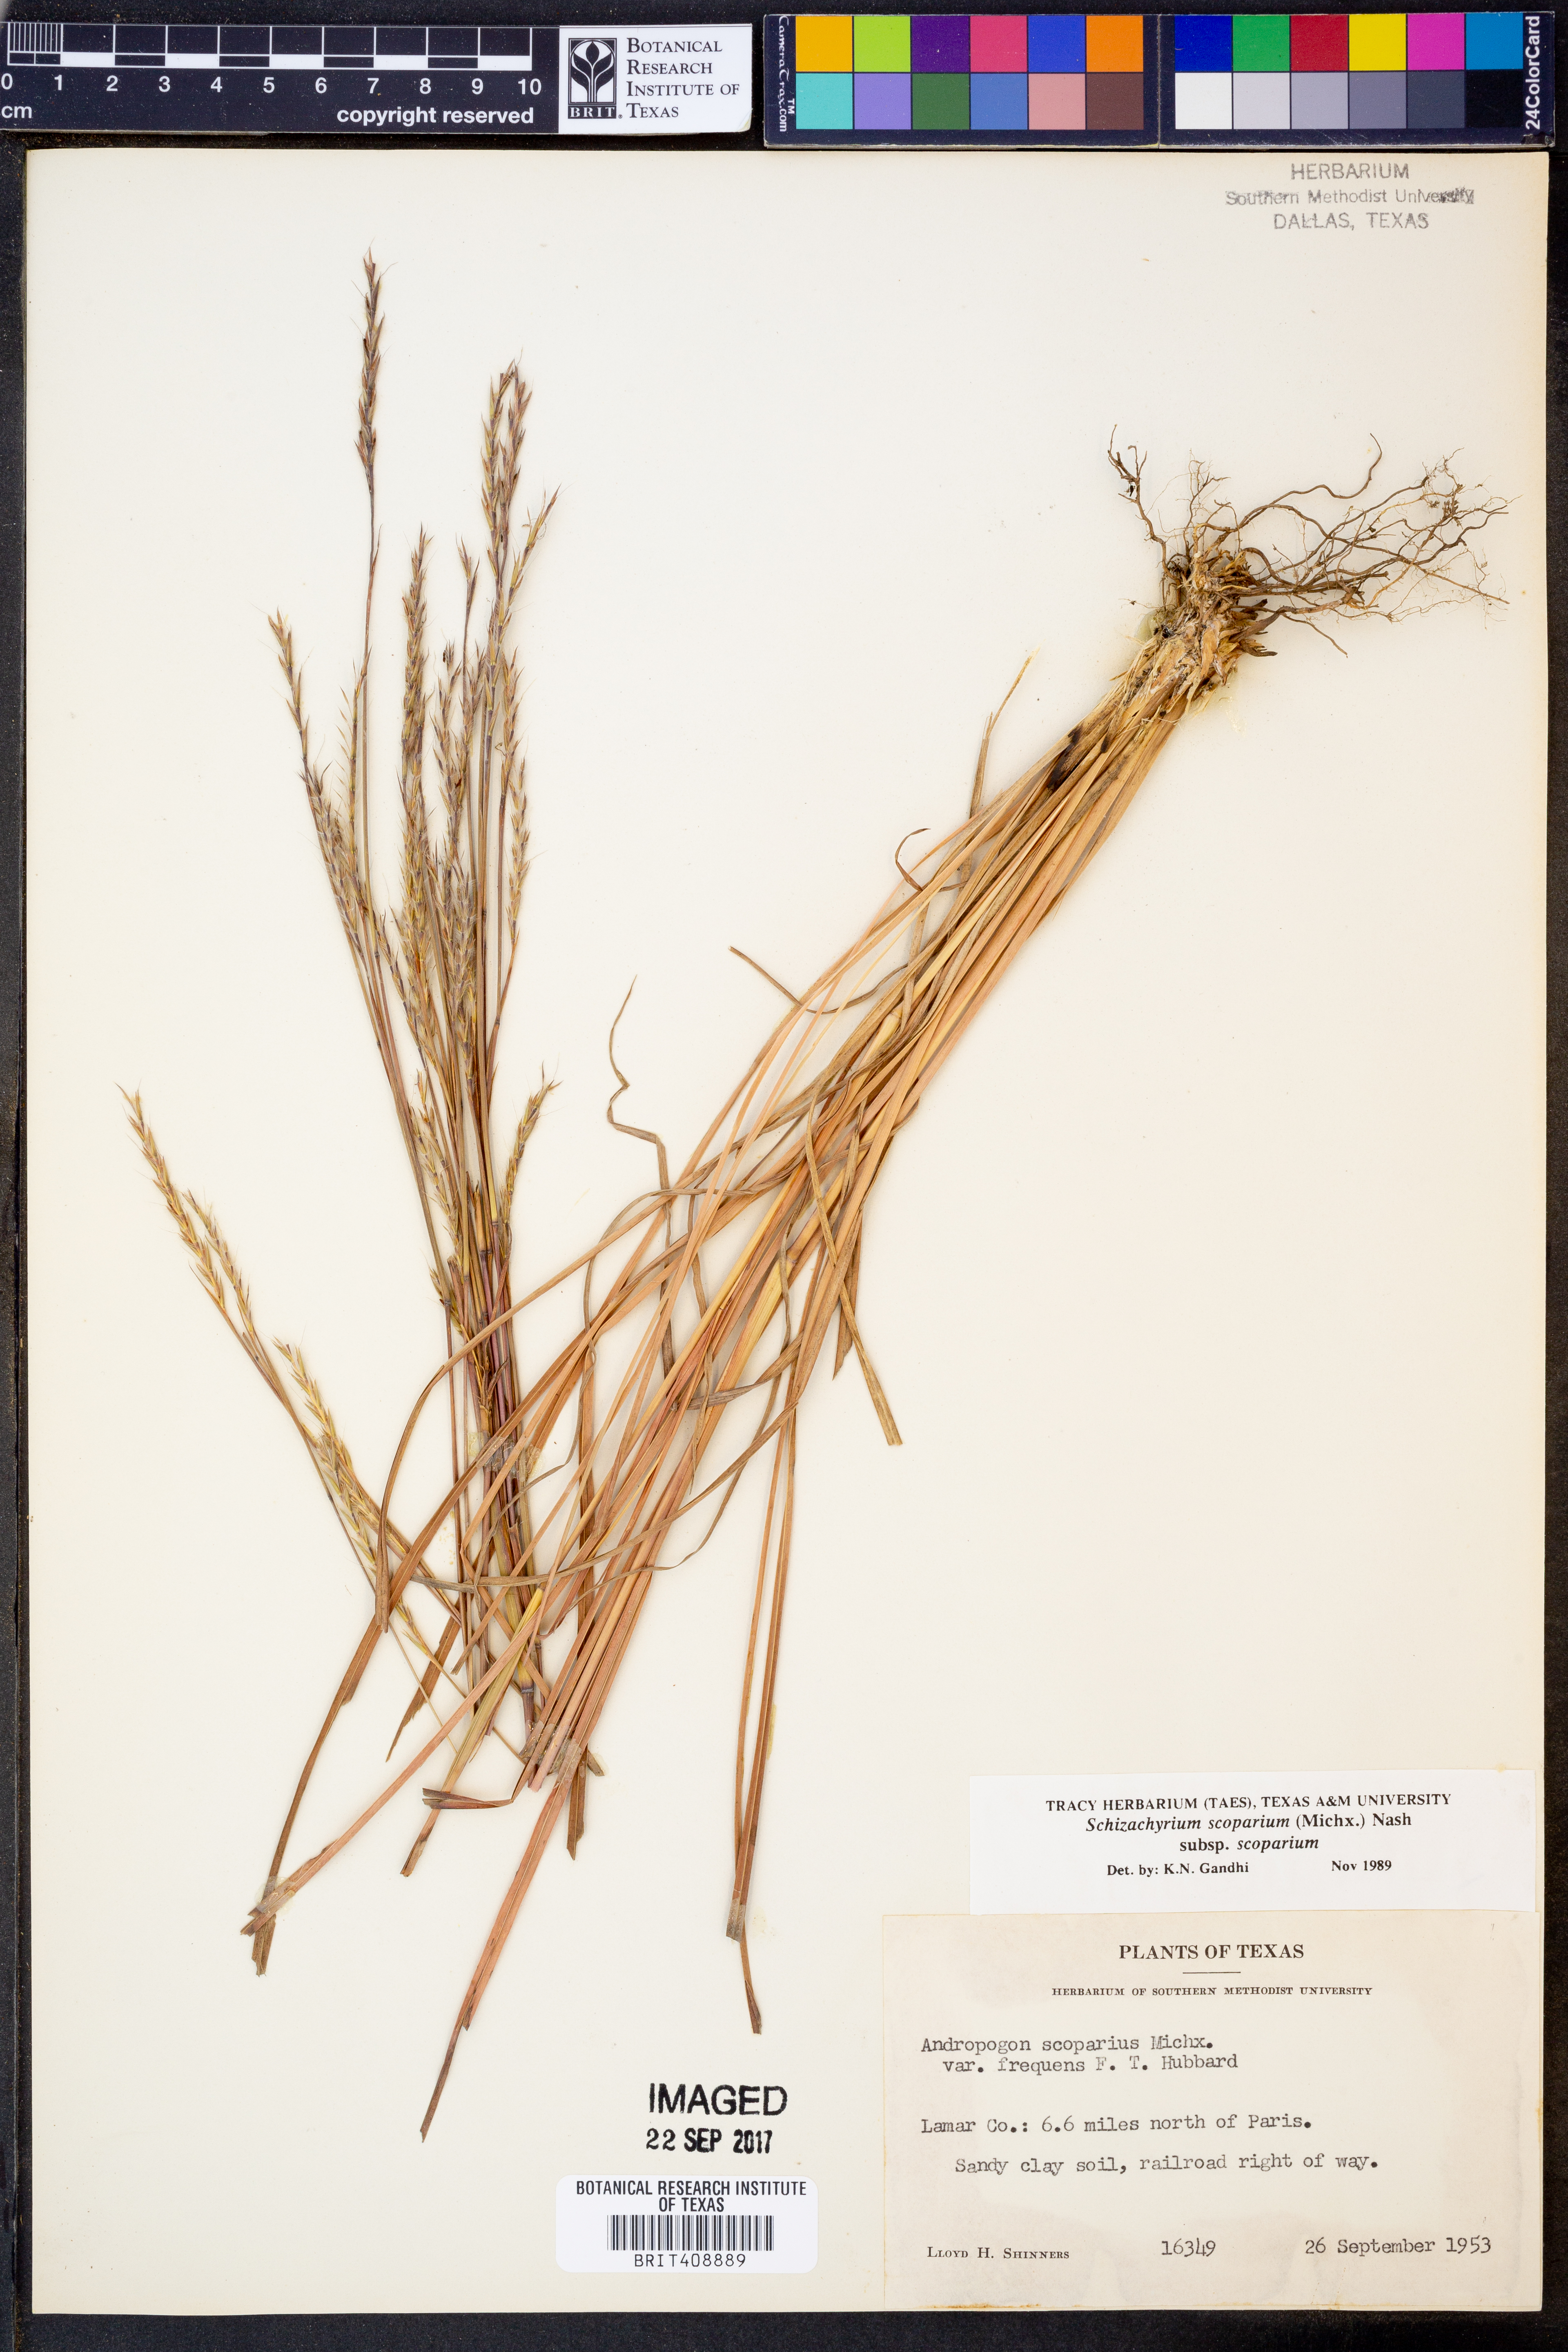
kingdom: Plantae
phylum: Tracheophyta
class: Liliopsida
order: Poales
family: Poaceae
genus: Schizachyrium
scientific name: Schizachyrium scoparium
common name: Little bluestem
